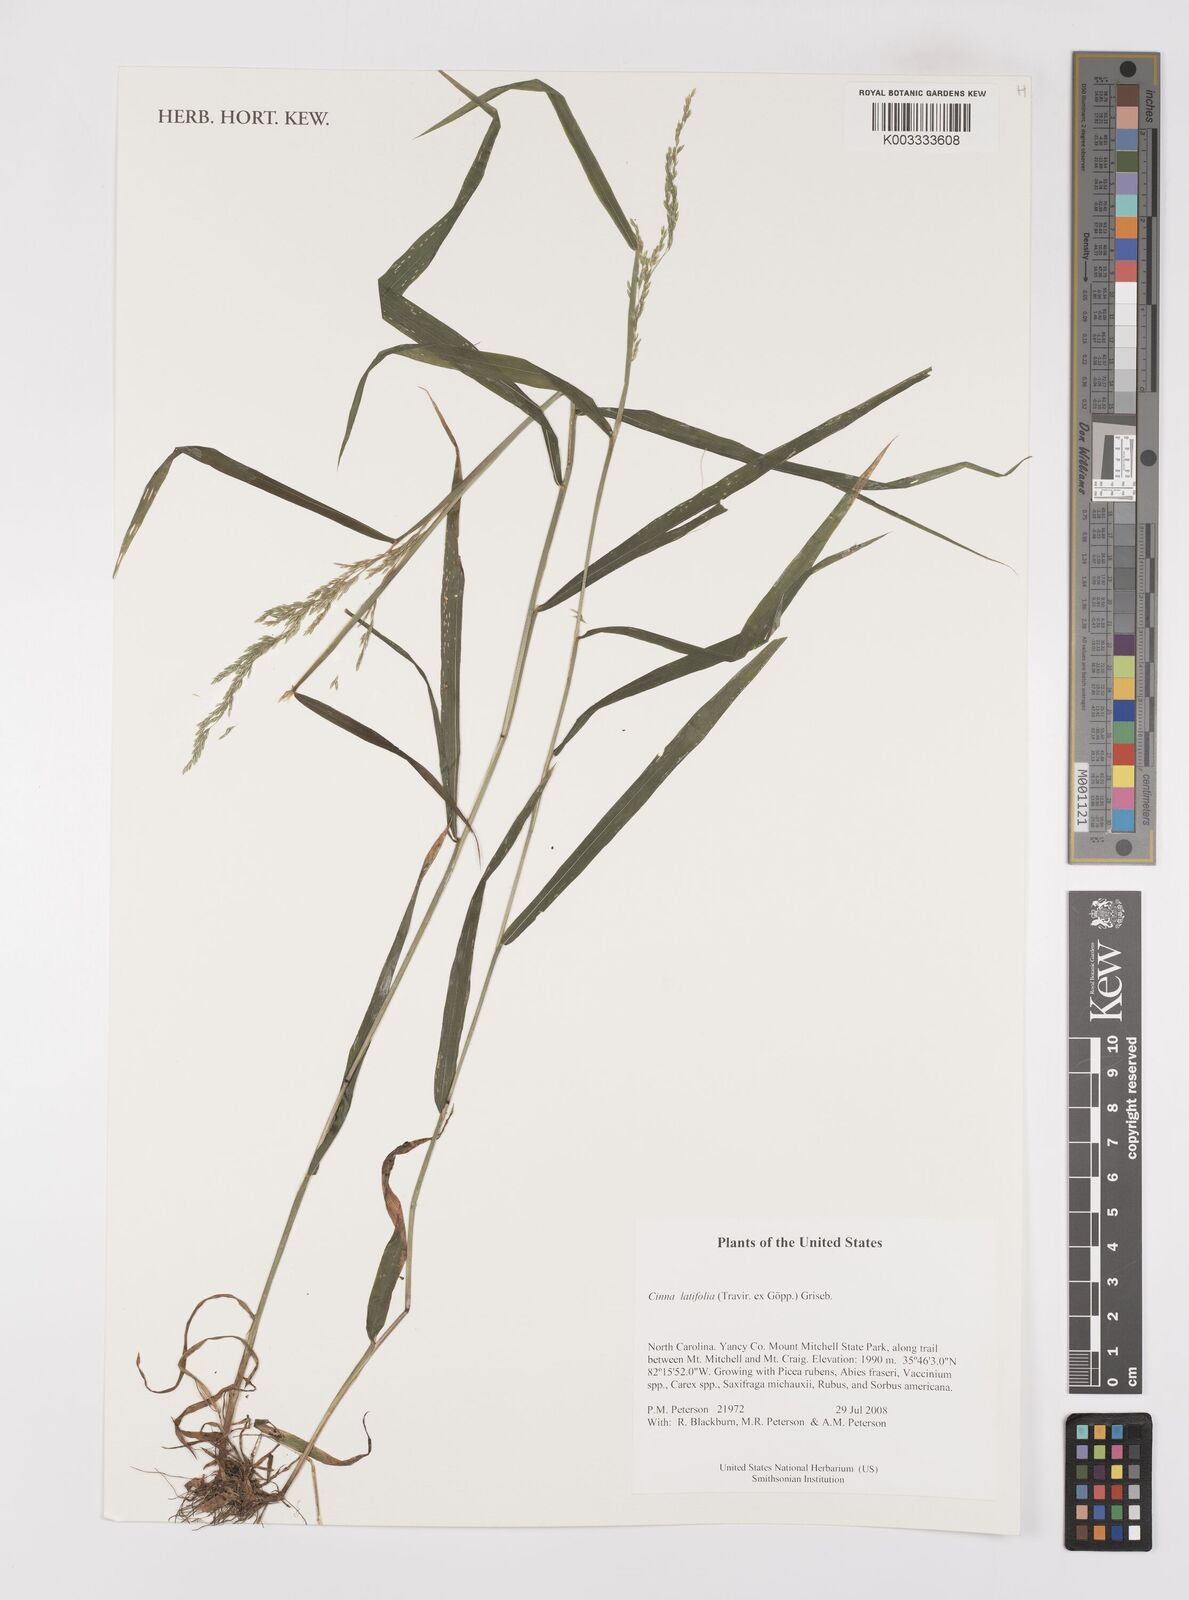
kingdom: Plantae
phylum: Tracheophyta
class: Liliopsida
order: Poales
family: Poaceae
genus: Cinna
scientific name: Cinna latifolia
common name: Drooping woodreed
